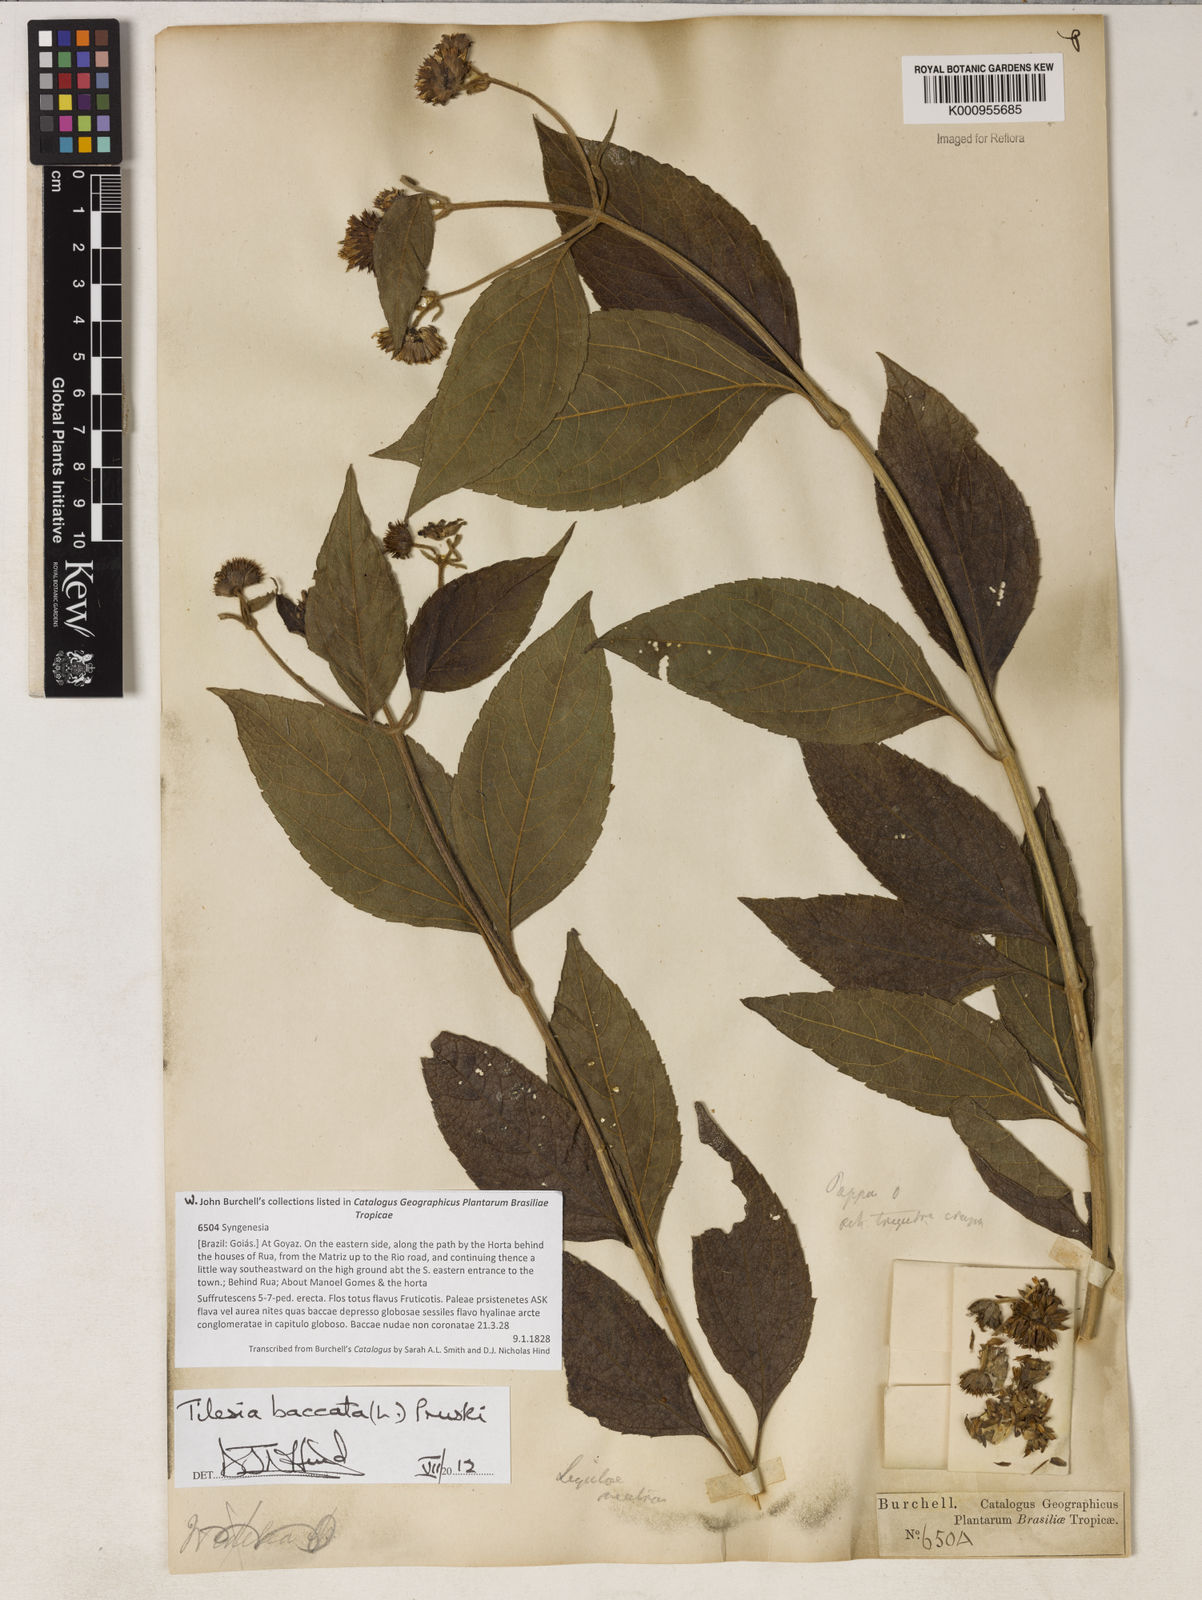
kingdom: Plantae
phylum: Tracheophyta
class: Magnoliopsida
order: Asterales
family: Asteraceae
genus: Tilesia
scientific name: Tilesia baccata
